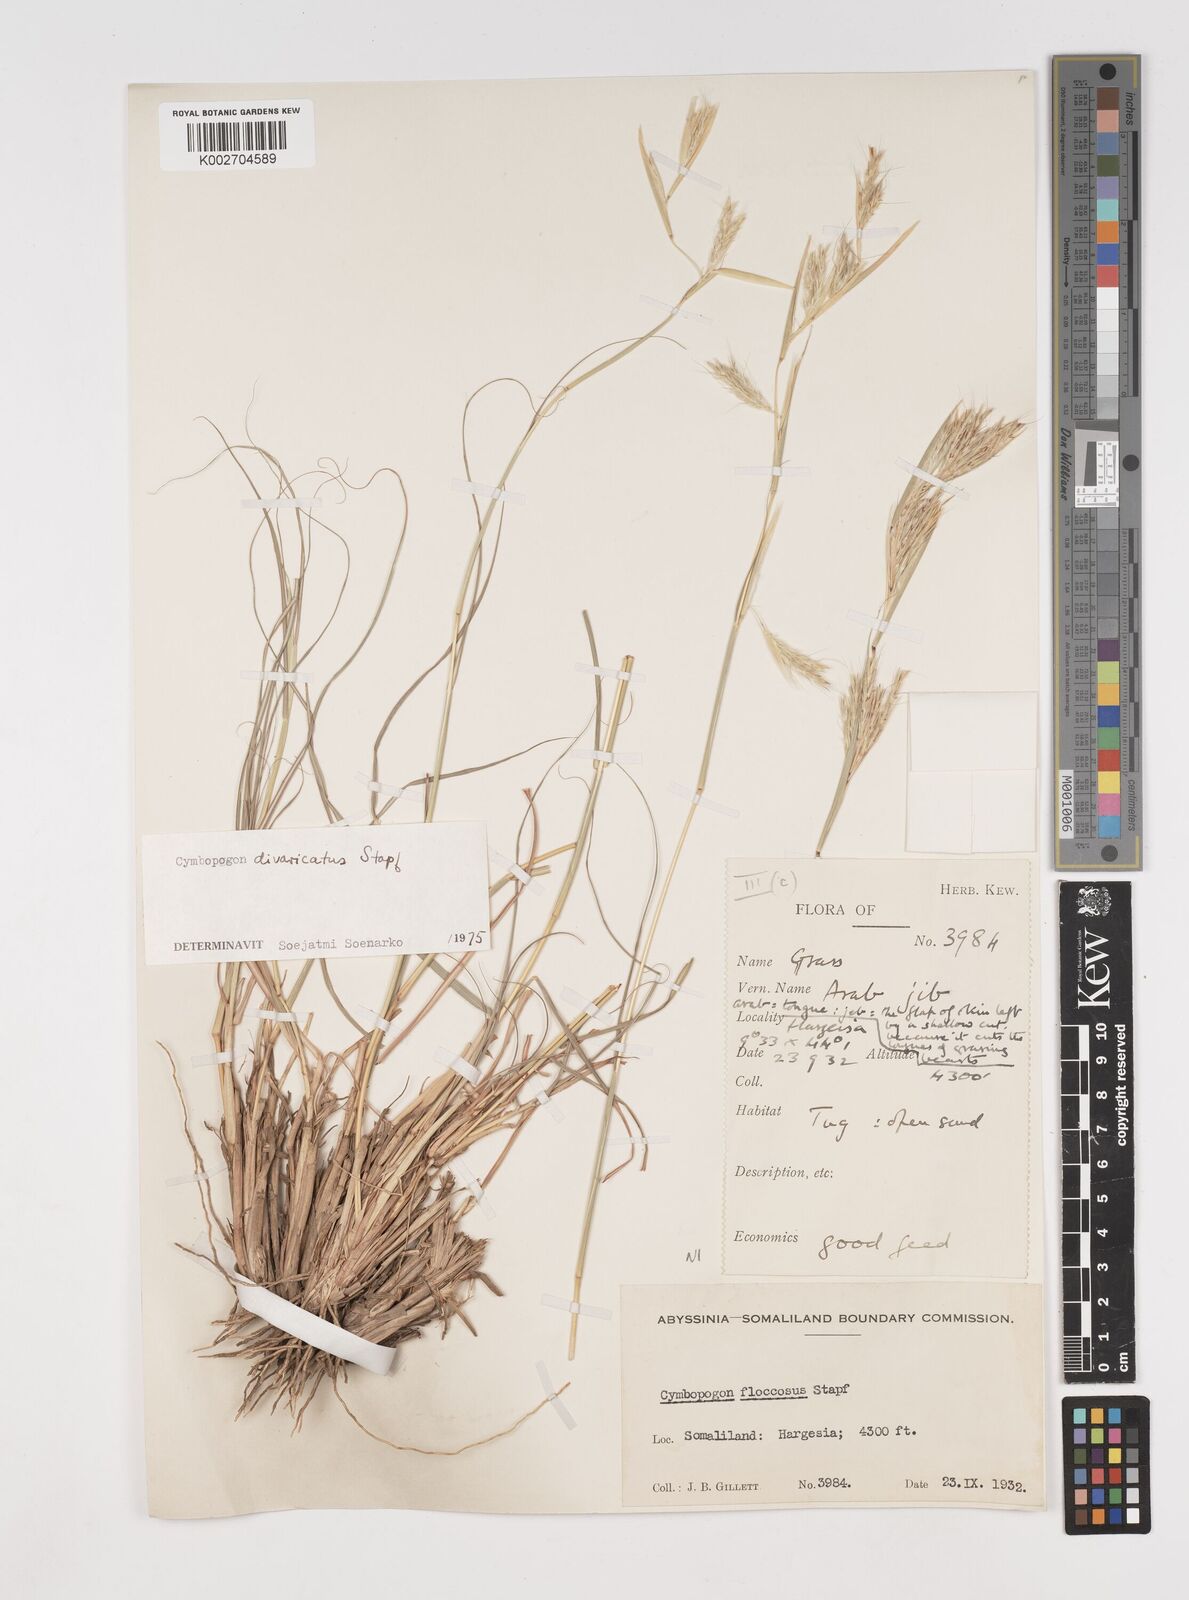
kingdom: Plantae
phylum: Tracheophyta
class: Liliopsida
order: Poales
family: Poaceae
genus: Cymbopogon
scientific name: Cymbopogon commutatus
